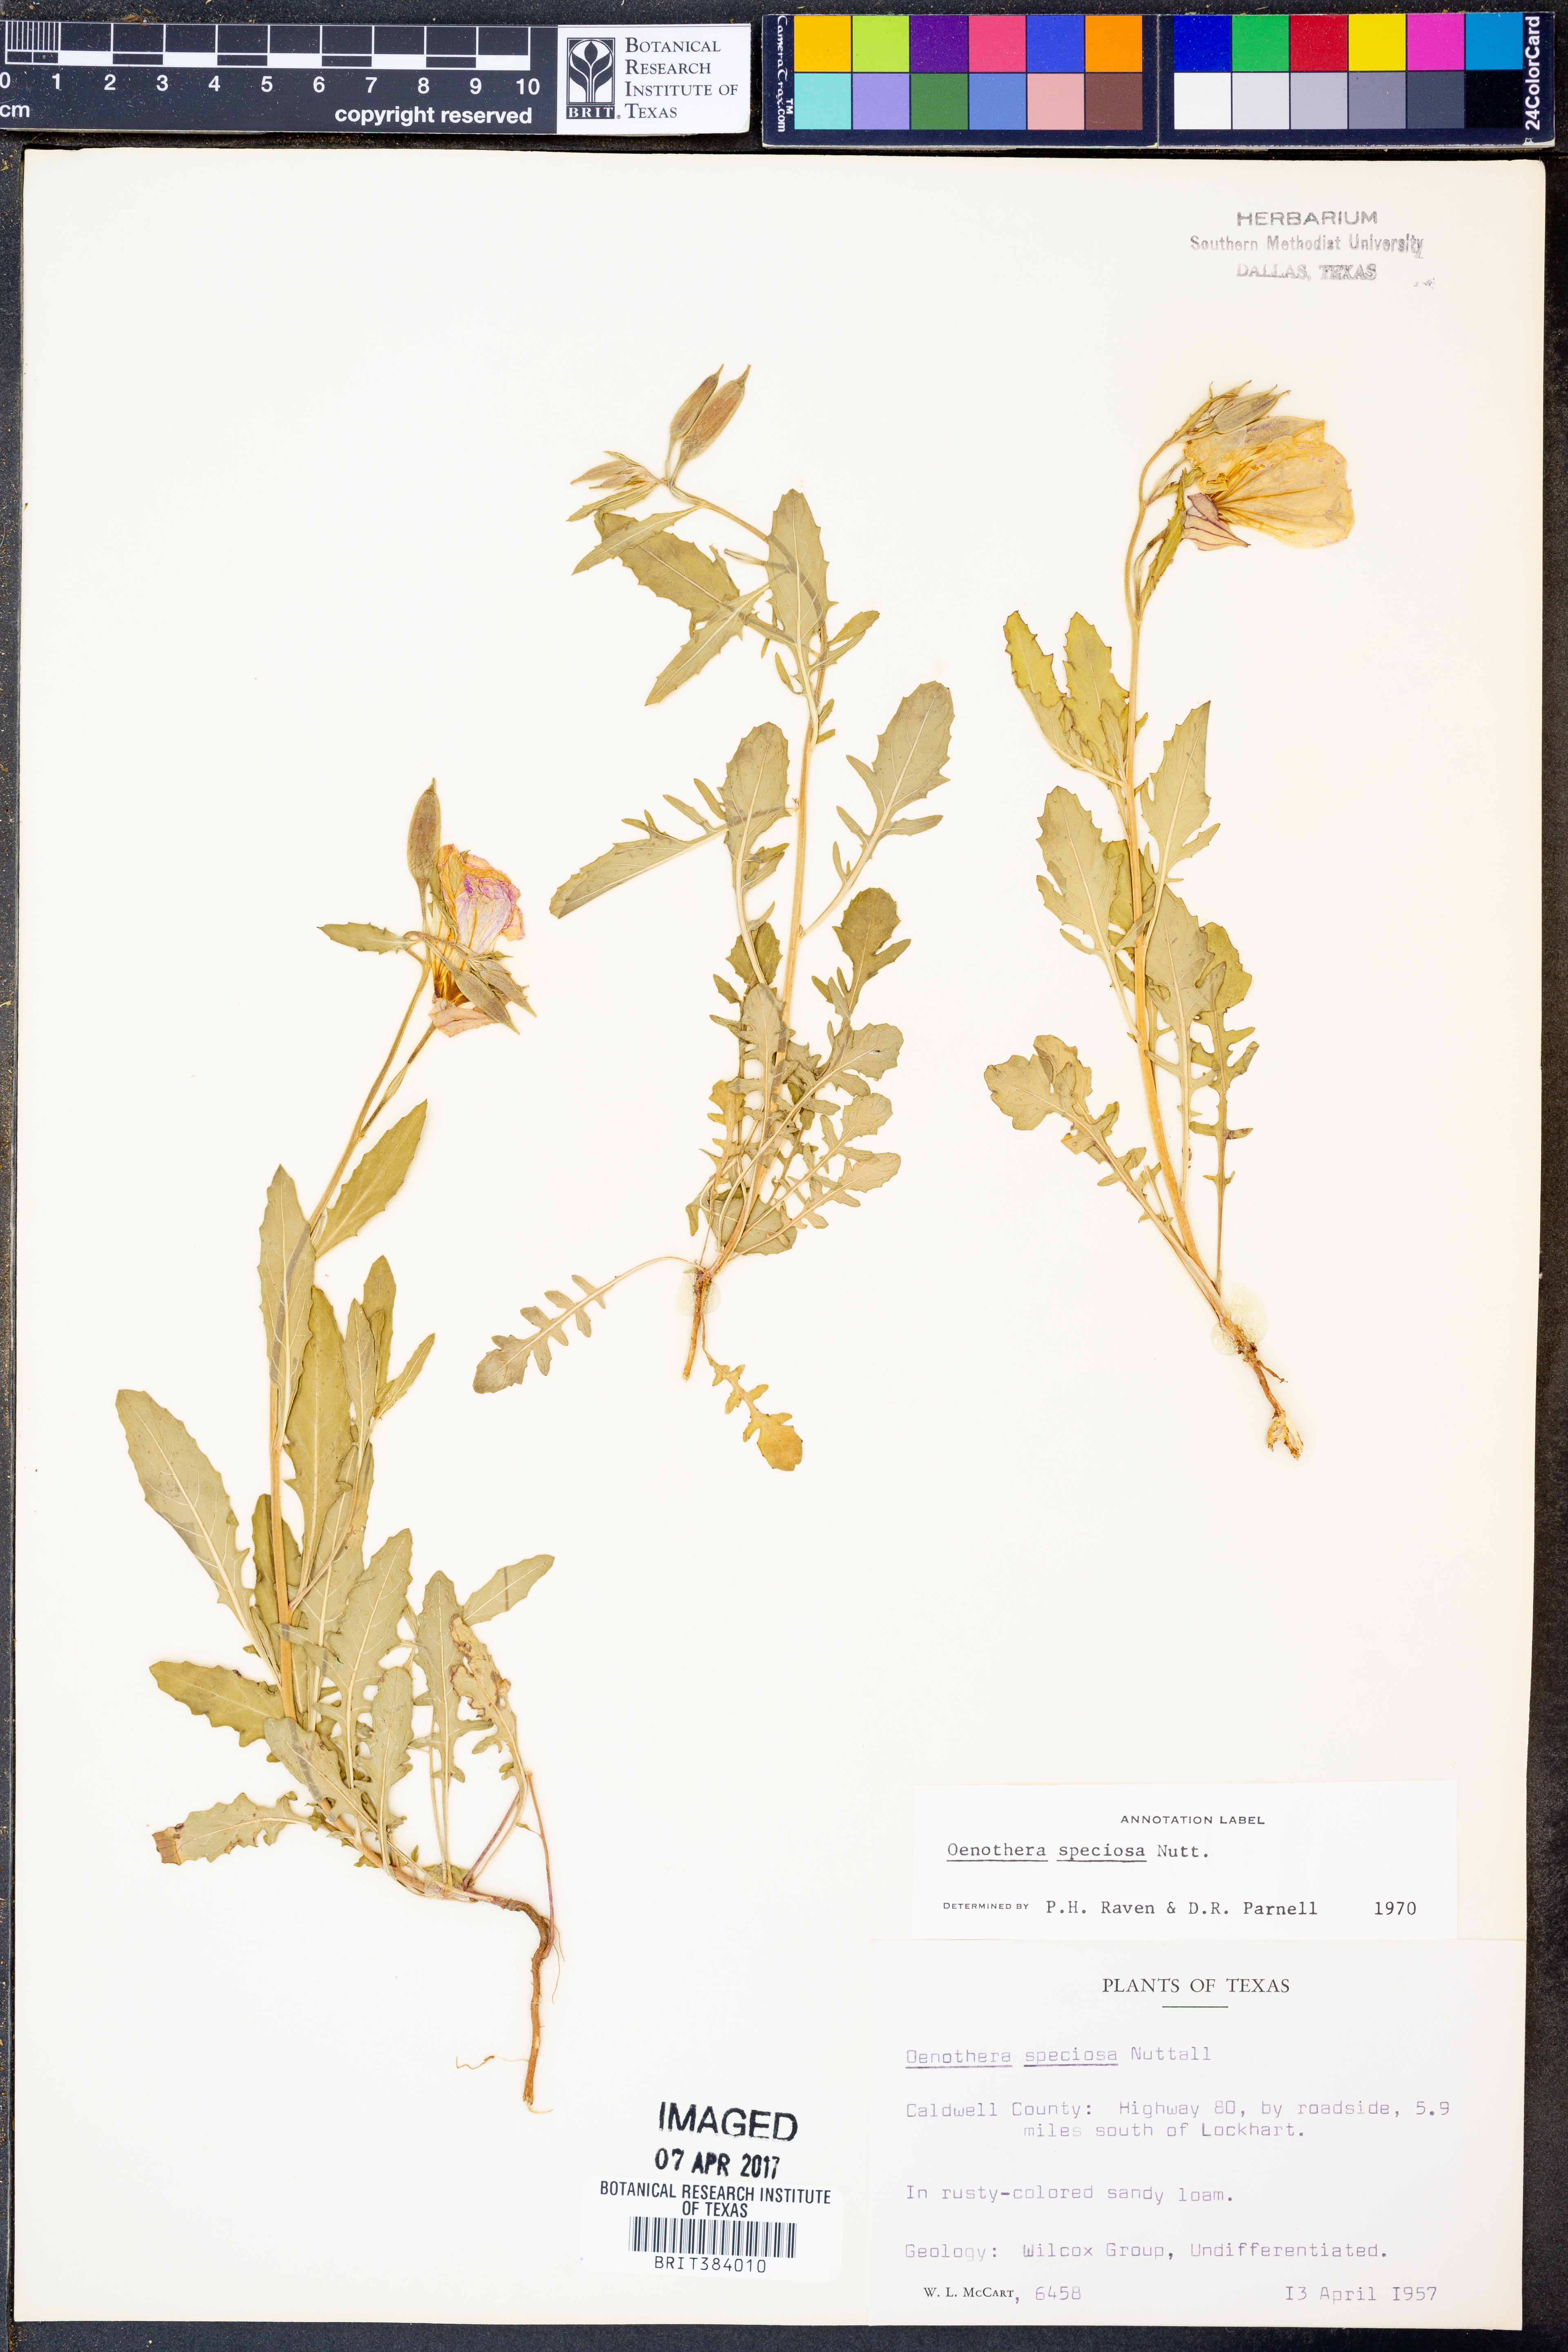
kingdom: Plantae
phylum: Tracheophyta
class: Magnoliopsida
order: Myrtales
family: Onagraceae
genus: Oenothera
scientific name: Oenothera speciosa
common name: White evening-primrose
